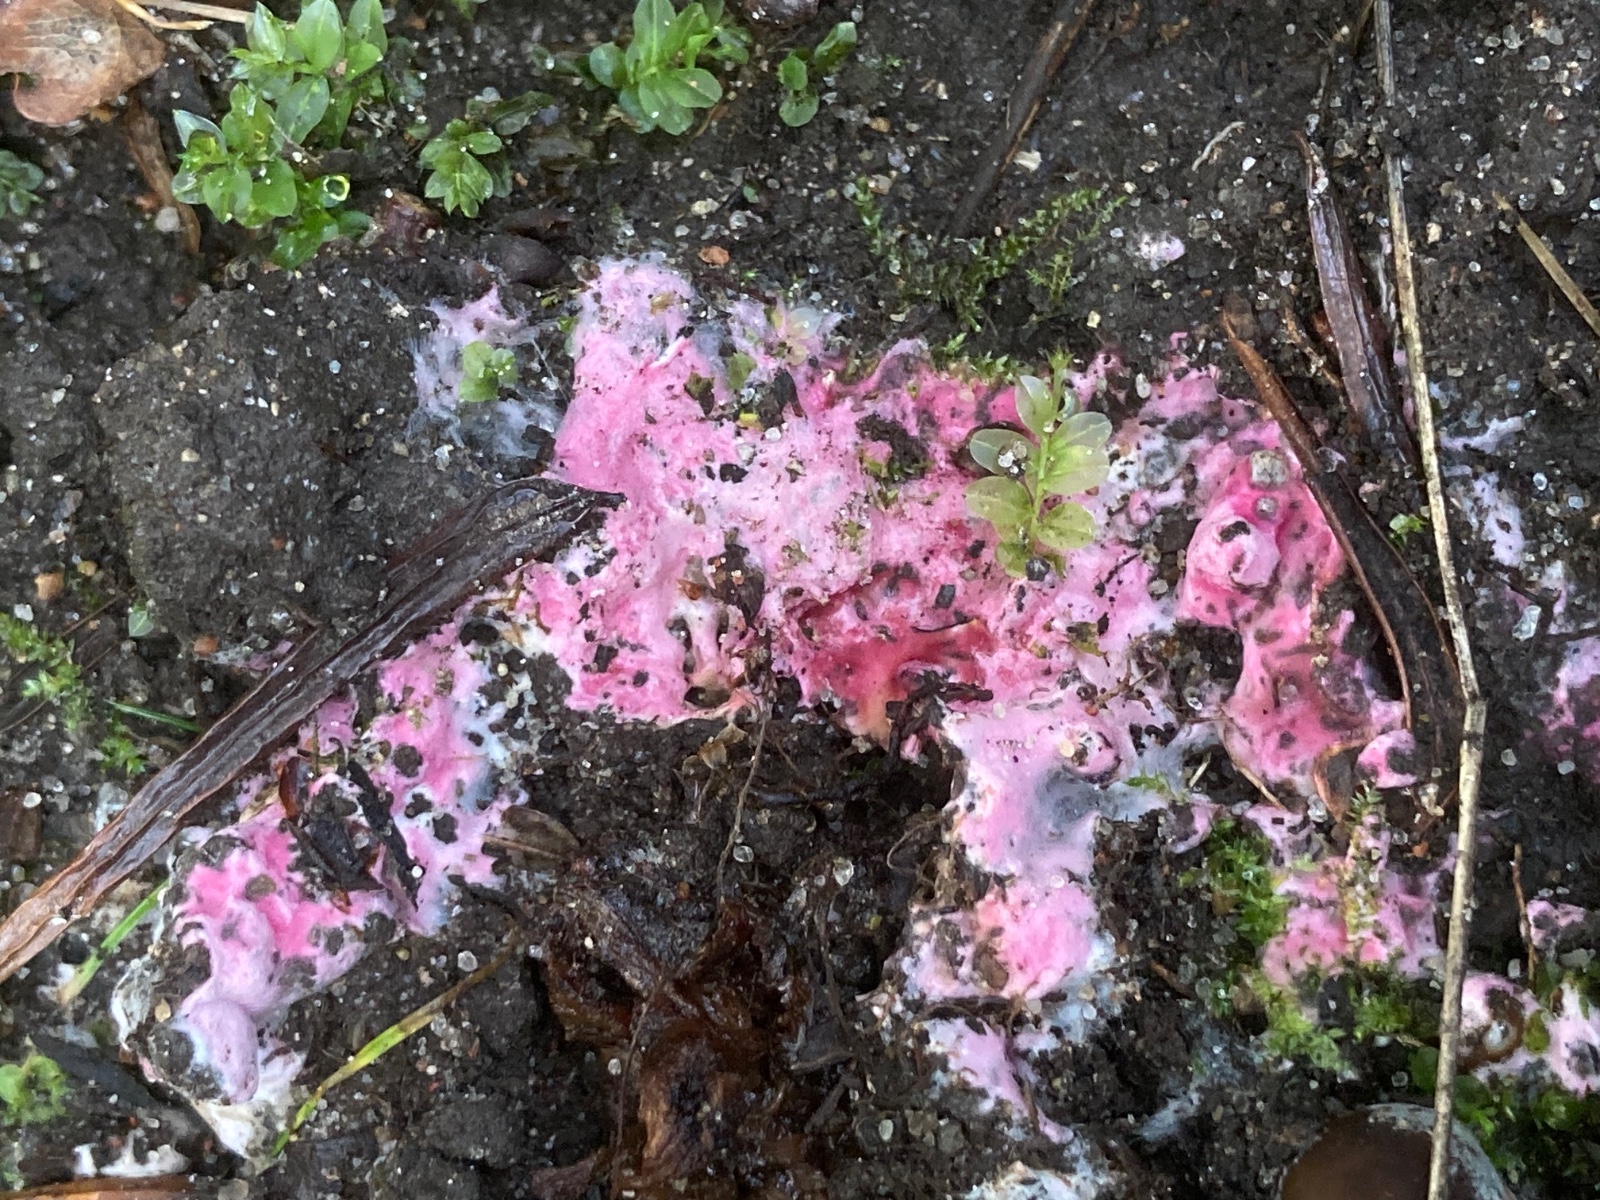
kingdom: Fungi
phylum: Ascomycota
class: Sordariomycetes
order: Hypocreales
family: Hypocreaceae
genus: Hypomyces
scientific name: Hypomyces rosellus
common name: rosa snylteskorpe
